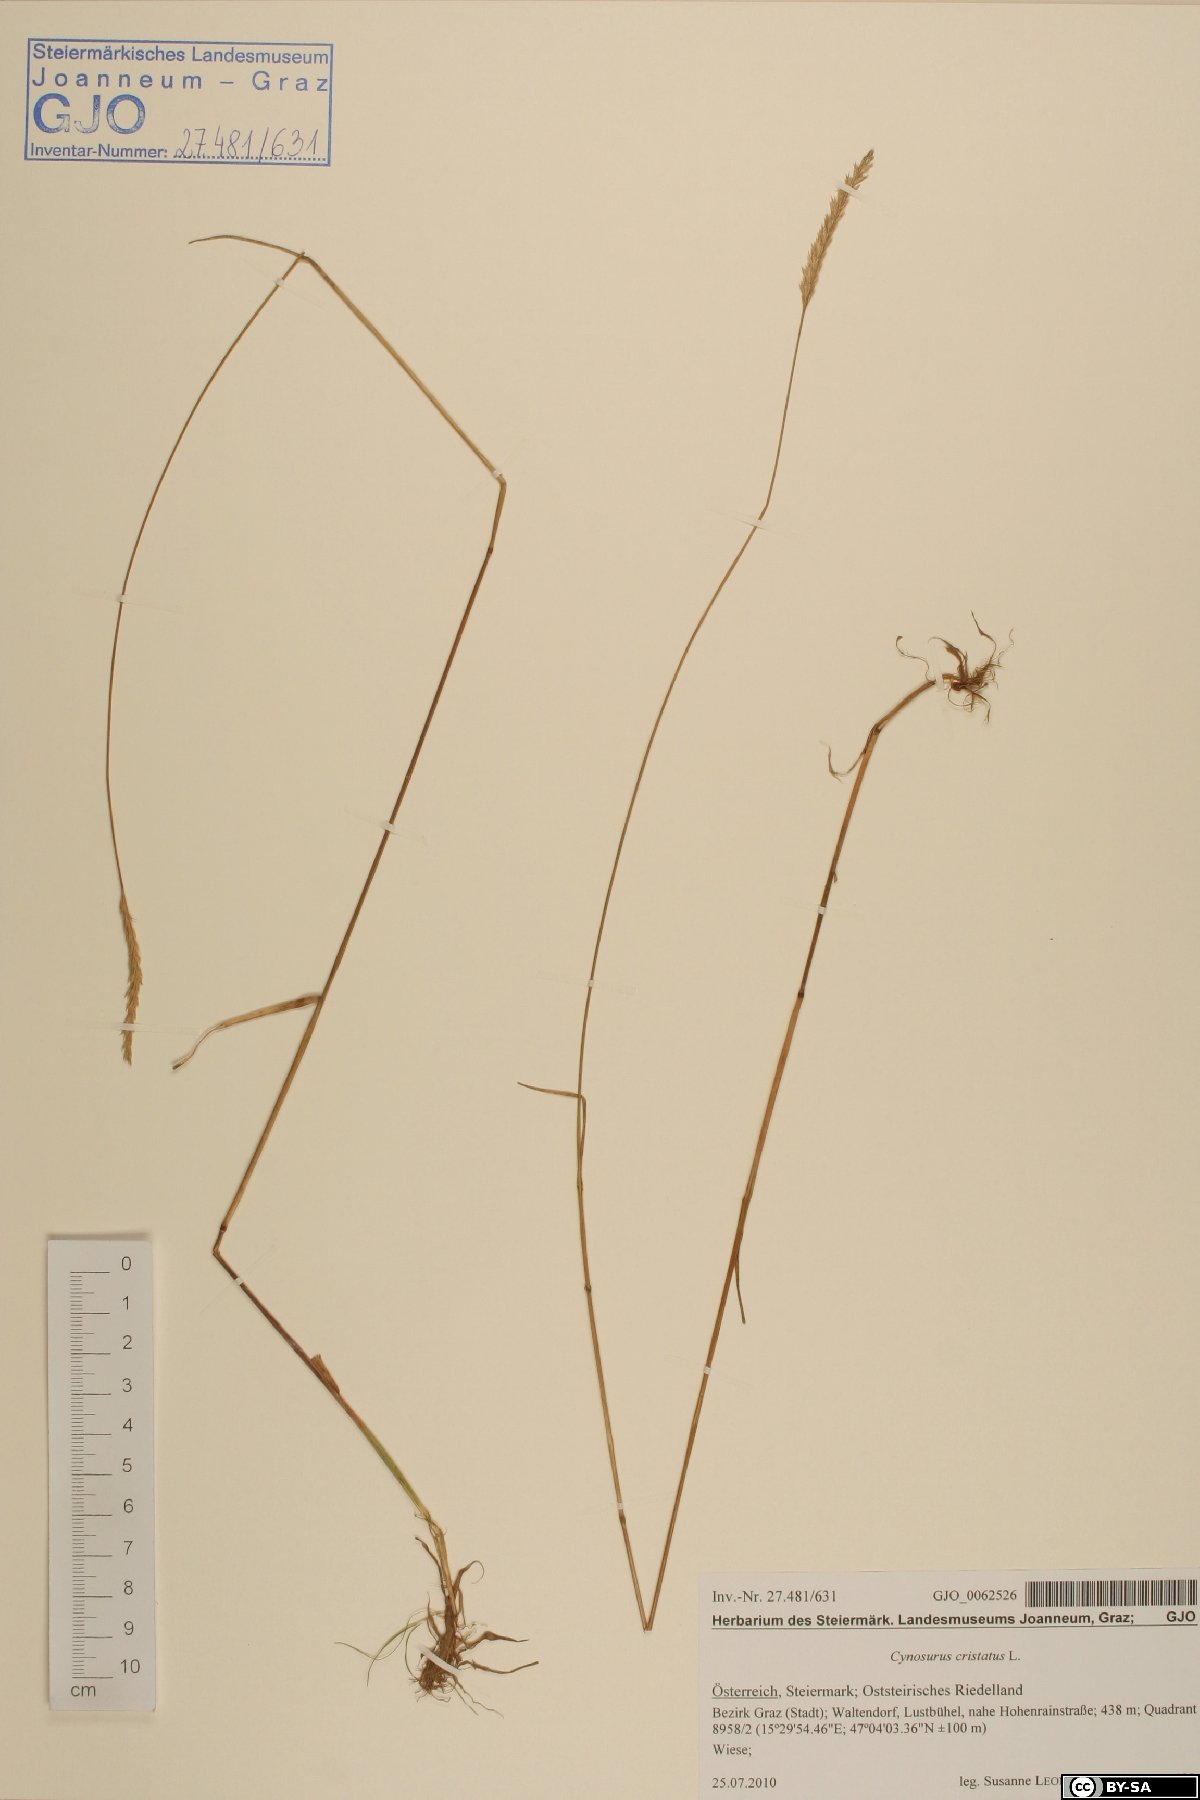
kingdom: Plantae
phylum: Tracheophyta
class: Liliopsida
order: Poales
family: Poaceae
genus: Cynosurus
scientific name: Cynosurus cristatus
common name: Crested dog's-tail
